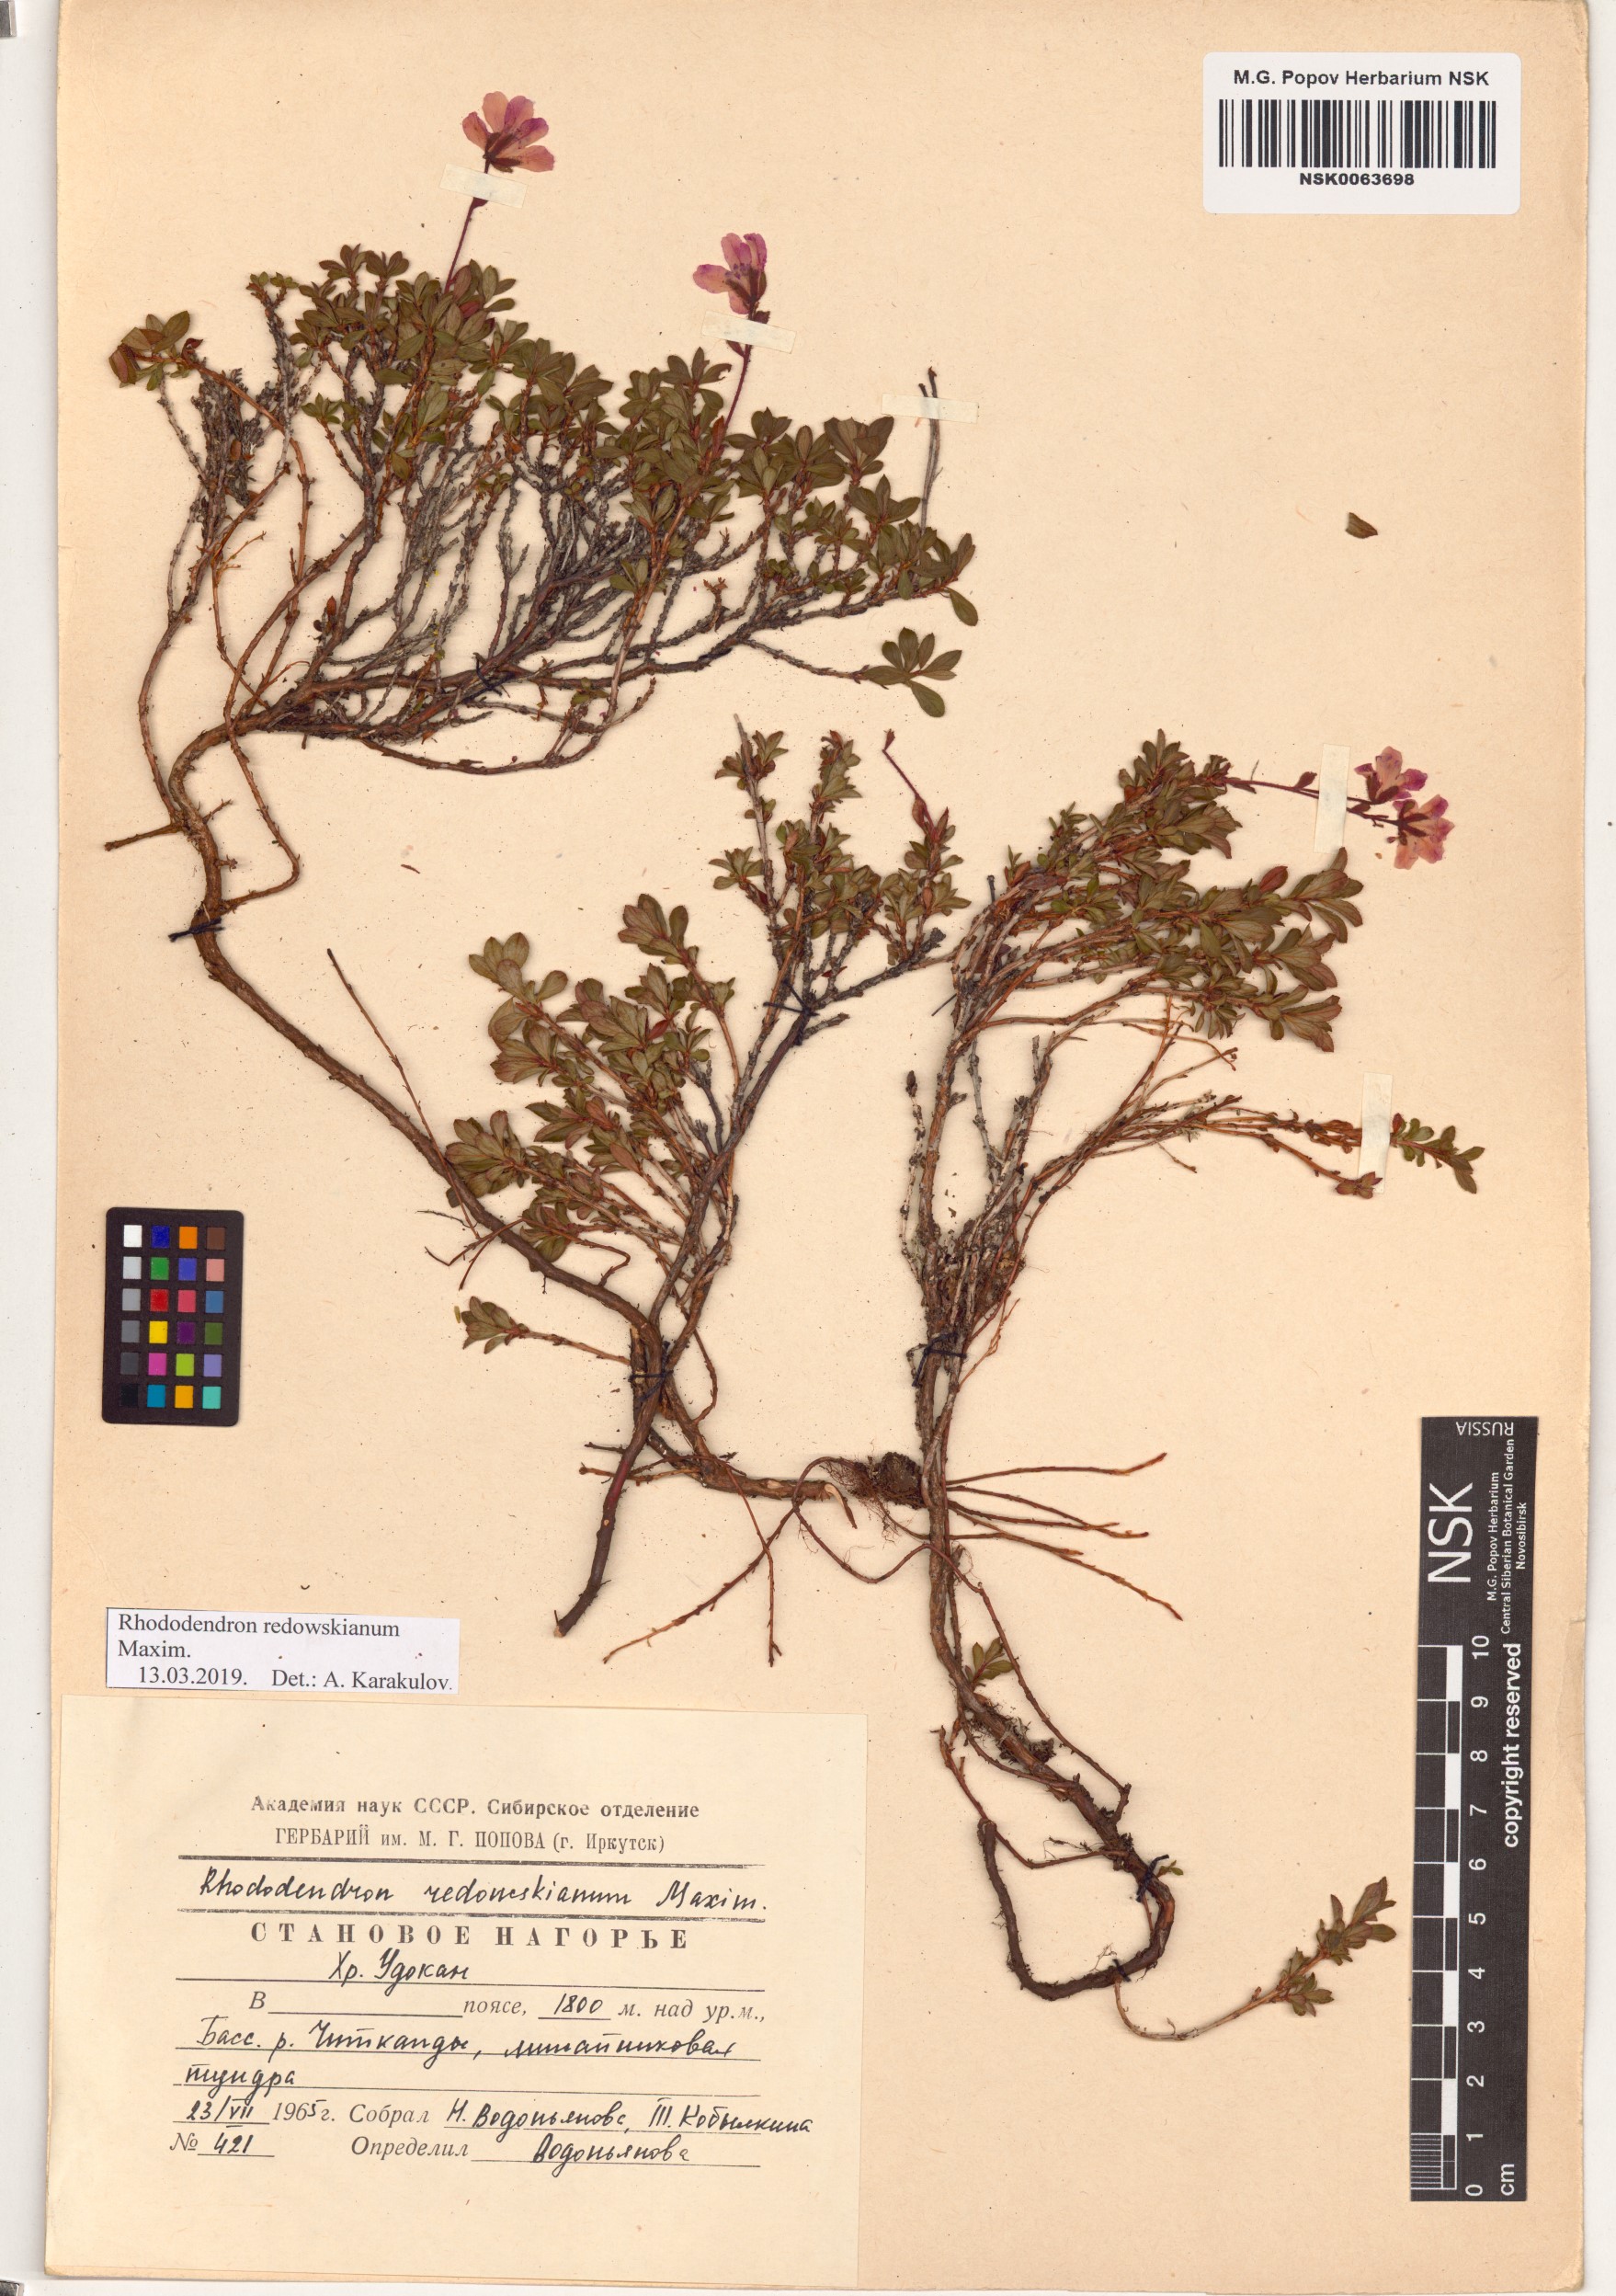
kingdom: Plantae
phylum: Tracheophyta
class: Magnoliopsida
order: Ericales
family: Ericaceae
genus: Rhododendron
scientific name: Rhododendron redowskianum
